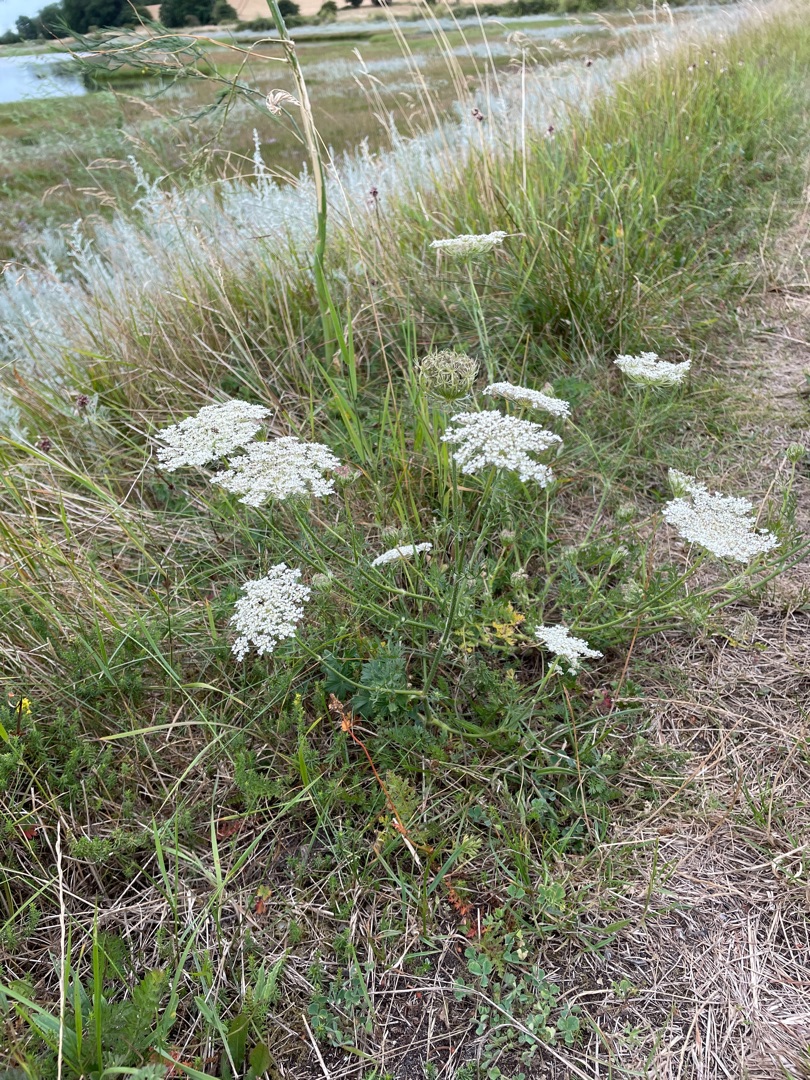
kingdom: Plantae
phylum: Tracheophyta
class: Magnoliopsida
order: Apiales
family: Apiaceae
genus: Daucus
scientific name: Daucus carota
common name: Vild gulerod
